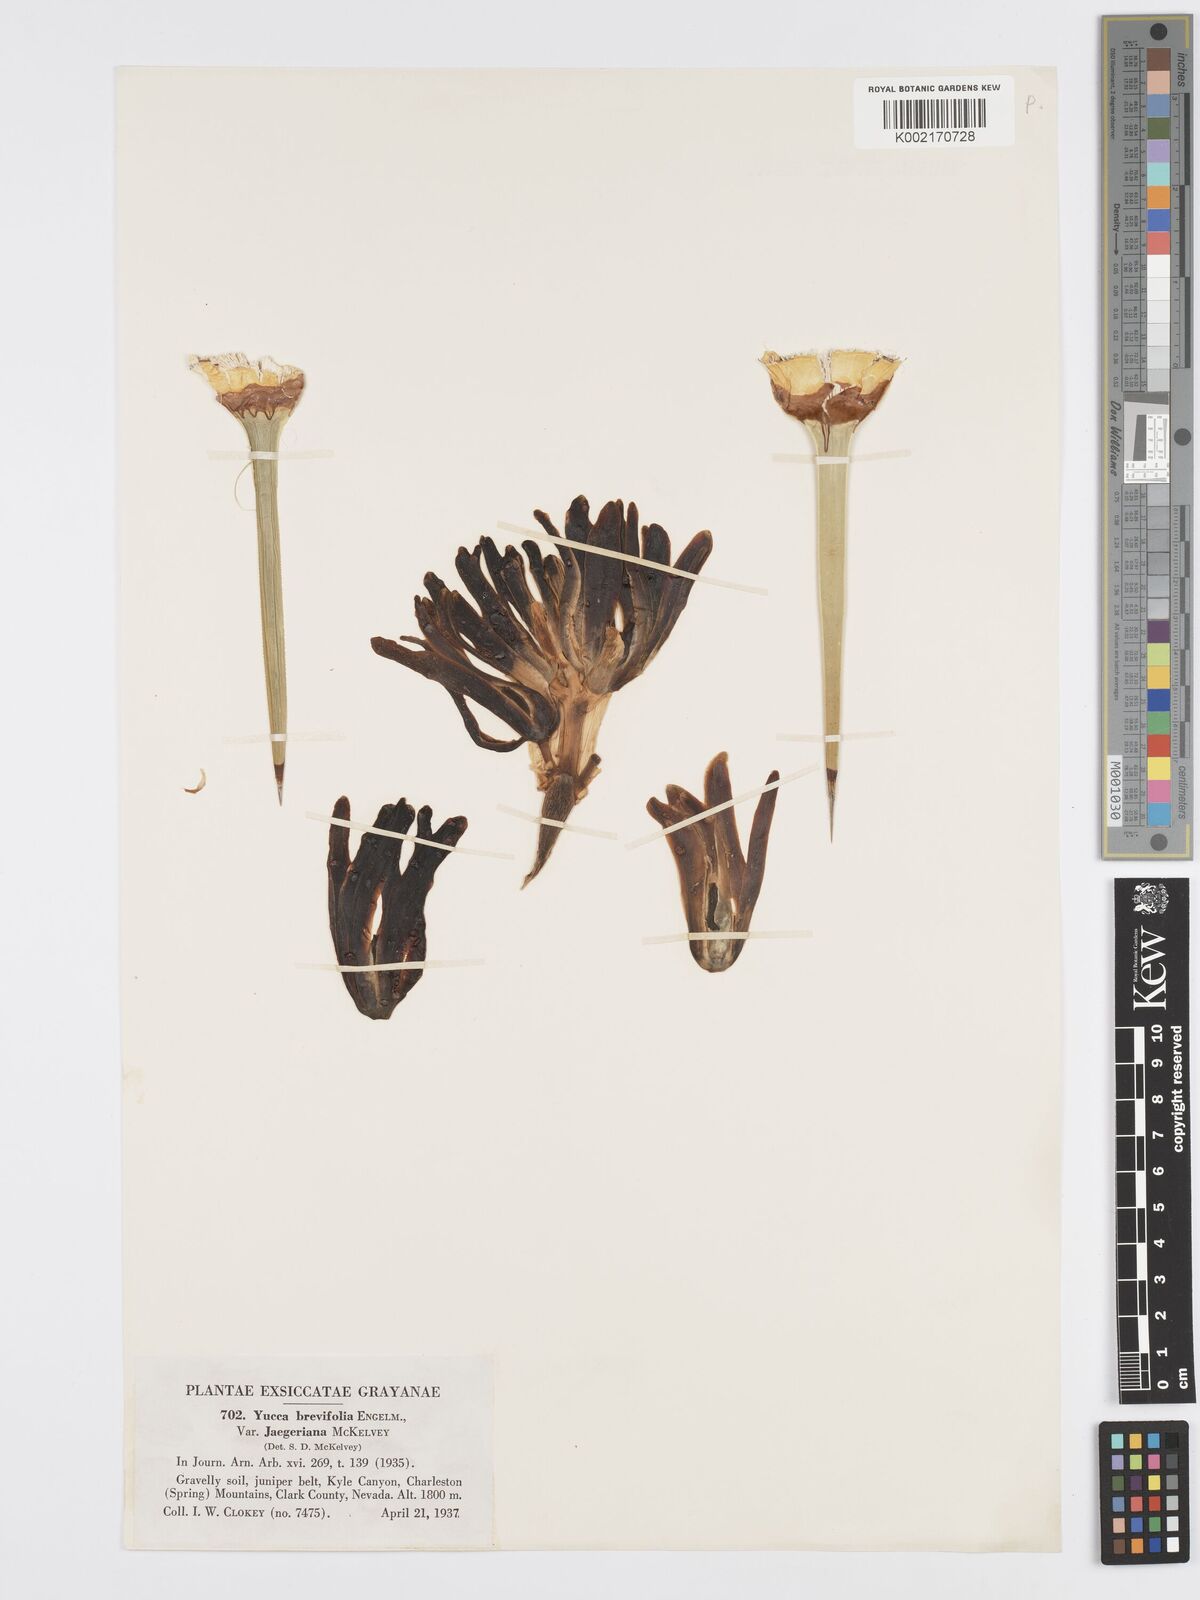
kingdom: Plantae
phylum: Tracheophyta
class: Liliopsida
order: Asparagales
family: Asparagaceae
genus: Yucca
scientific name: Yucca brevifolia
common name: Joshua tree
